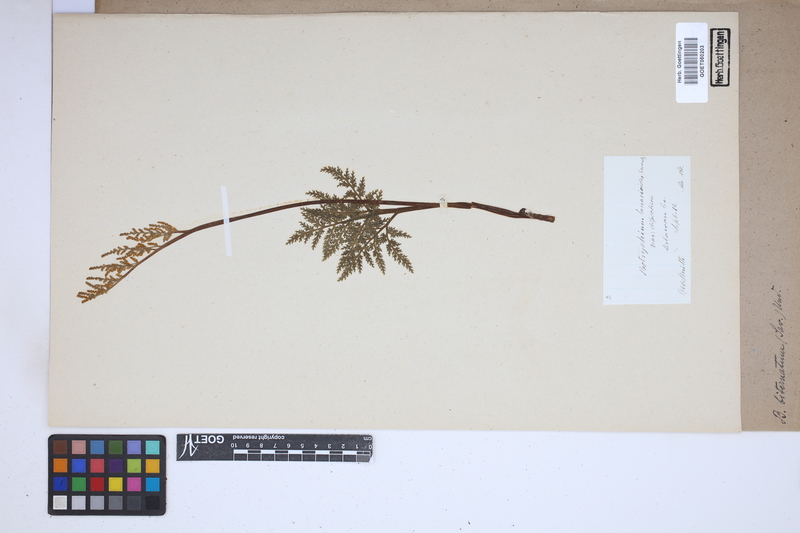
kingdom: Plantae
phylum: Tracheophyta
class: Polypodiopsida
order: Ophioglossales
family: Ophioglossaceae
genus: Sceptridium
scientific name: Sceptridium biternatum
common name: Sparse-lobed grapefern
